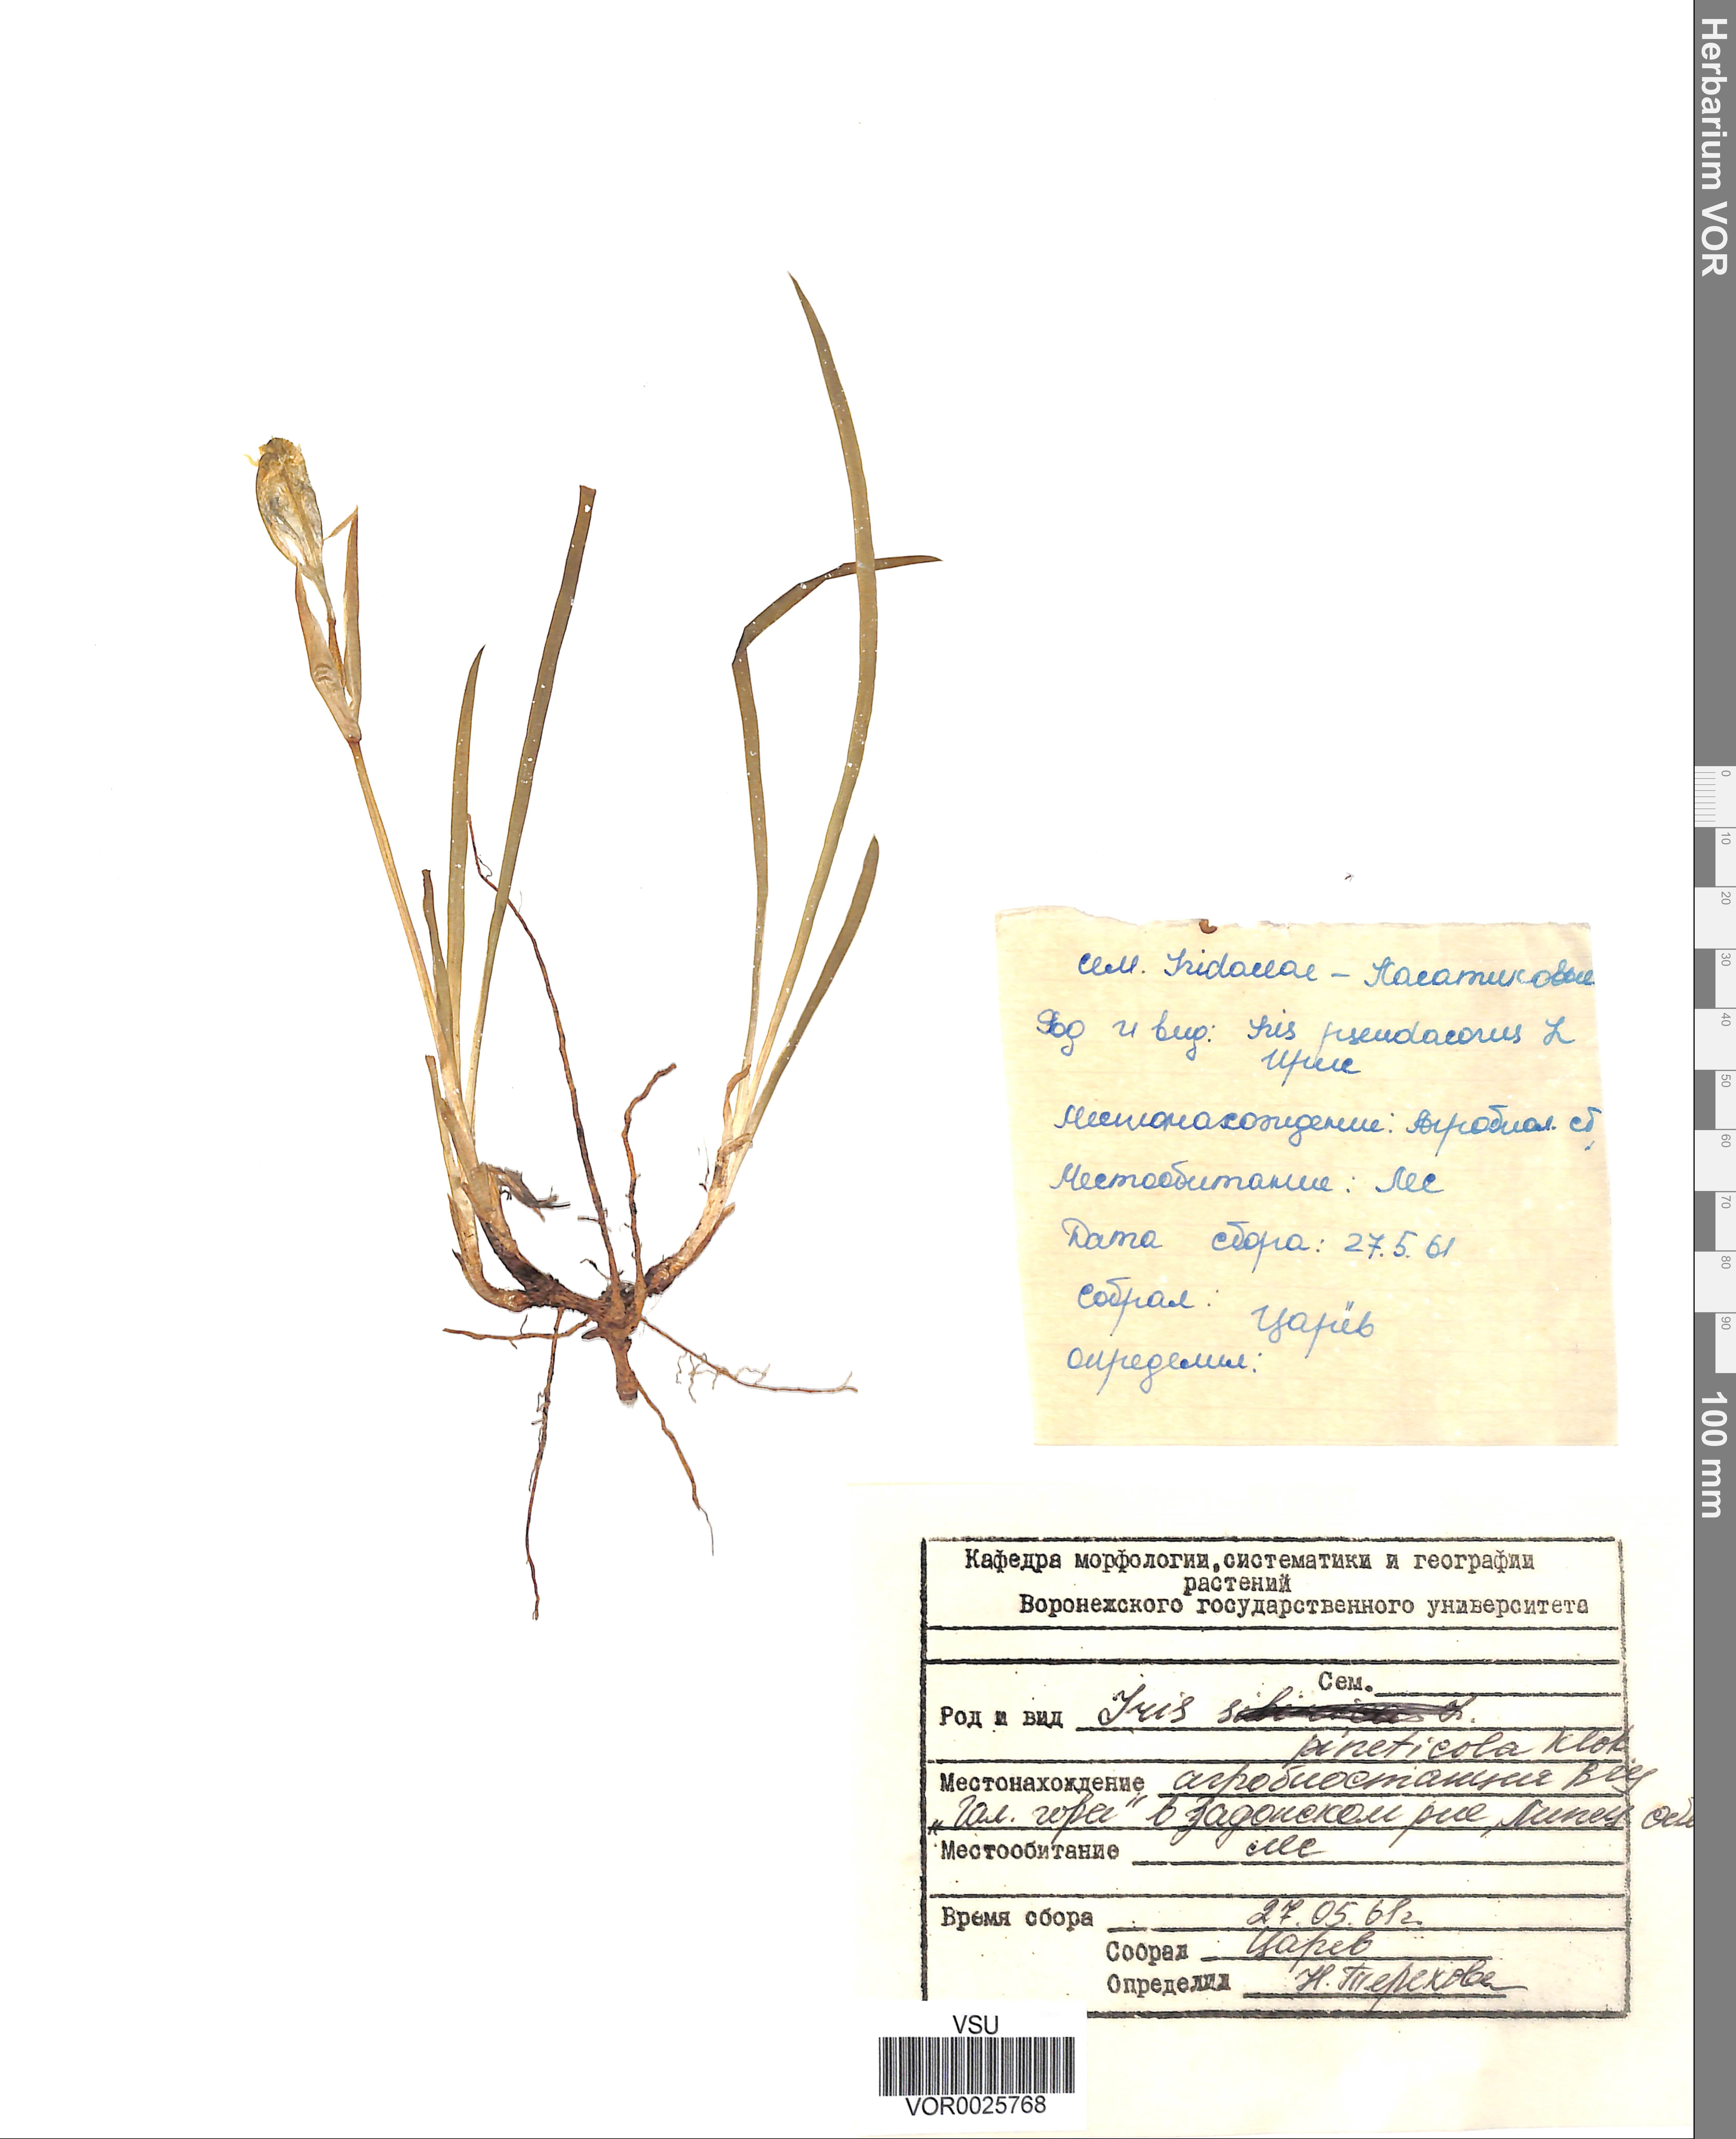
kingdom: Plantae
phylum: Tracheophyta
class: Liliopsida
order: Asparagales
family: Iridaceae
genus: Iris
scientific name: Iris arenaria
